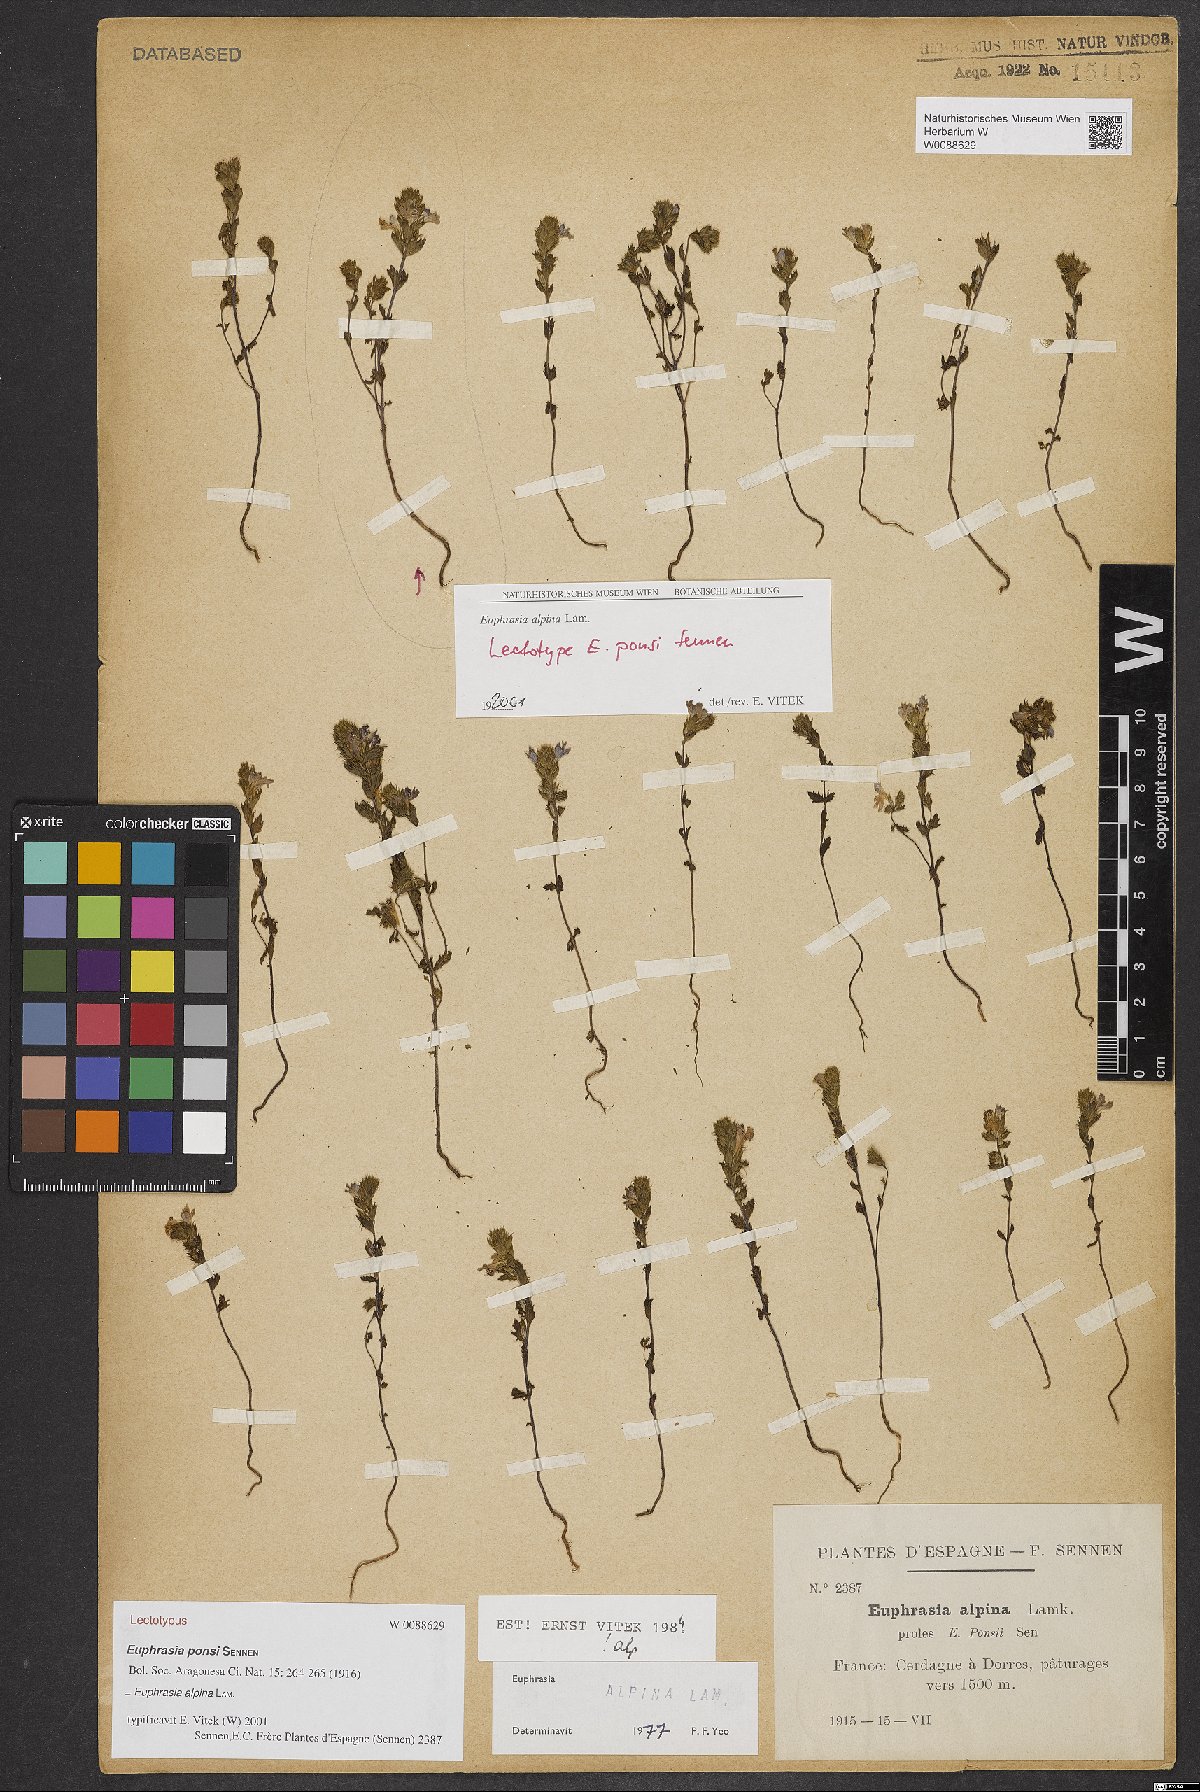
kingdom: Plantae
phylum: Tracheophyta
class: Magnoliopsida
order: Lamiales
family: Orobanchaceae
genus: Euphrasia
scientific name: Euphrasia alpina
